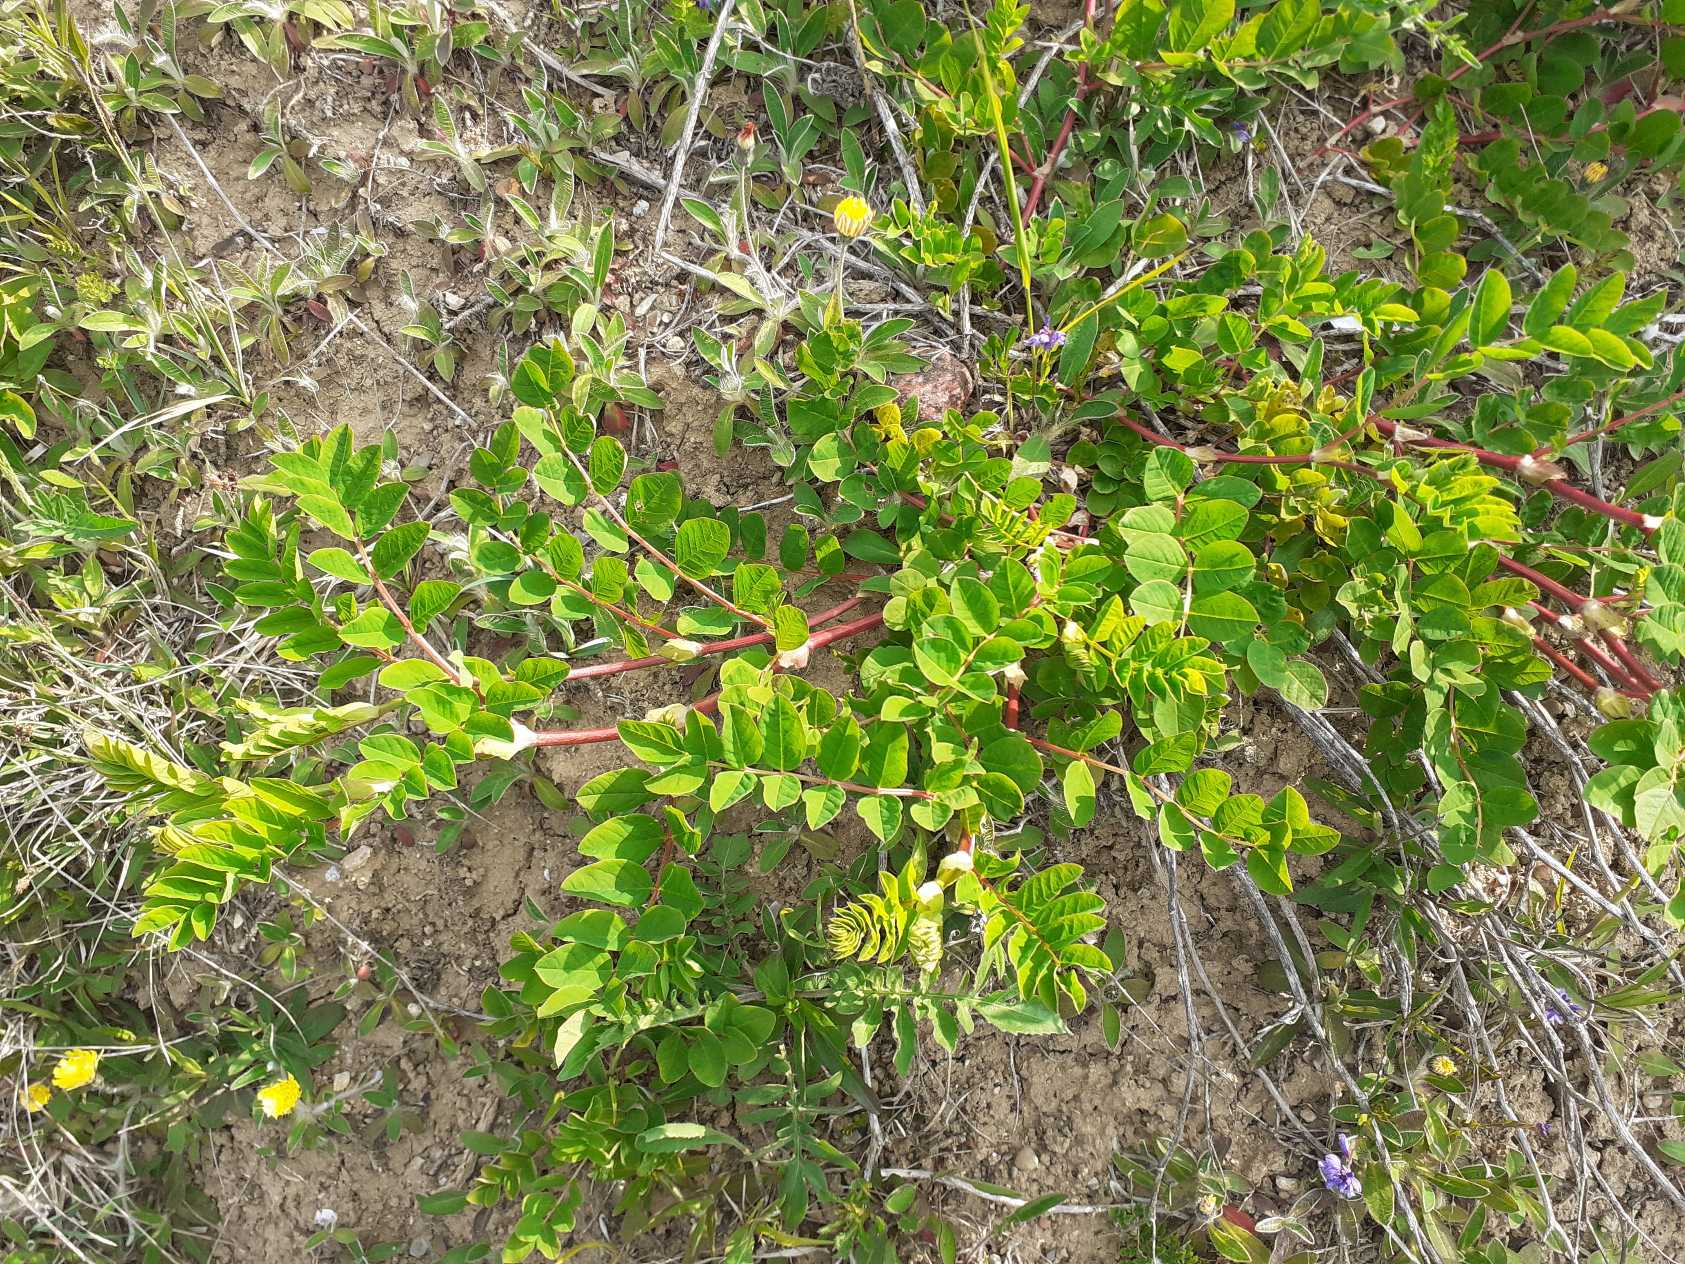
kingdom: Plantae
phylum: Tracheophyta
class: Magnoliopsida
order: Fabales
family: Fabaceae
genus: Astragalus
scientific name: Astragalus glycyphyllos
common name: Sød astragel
